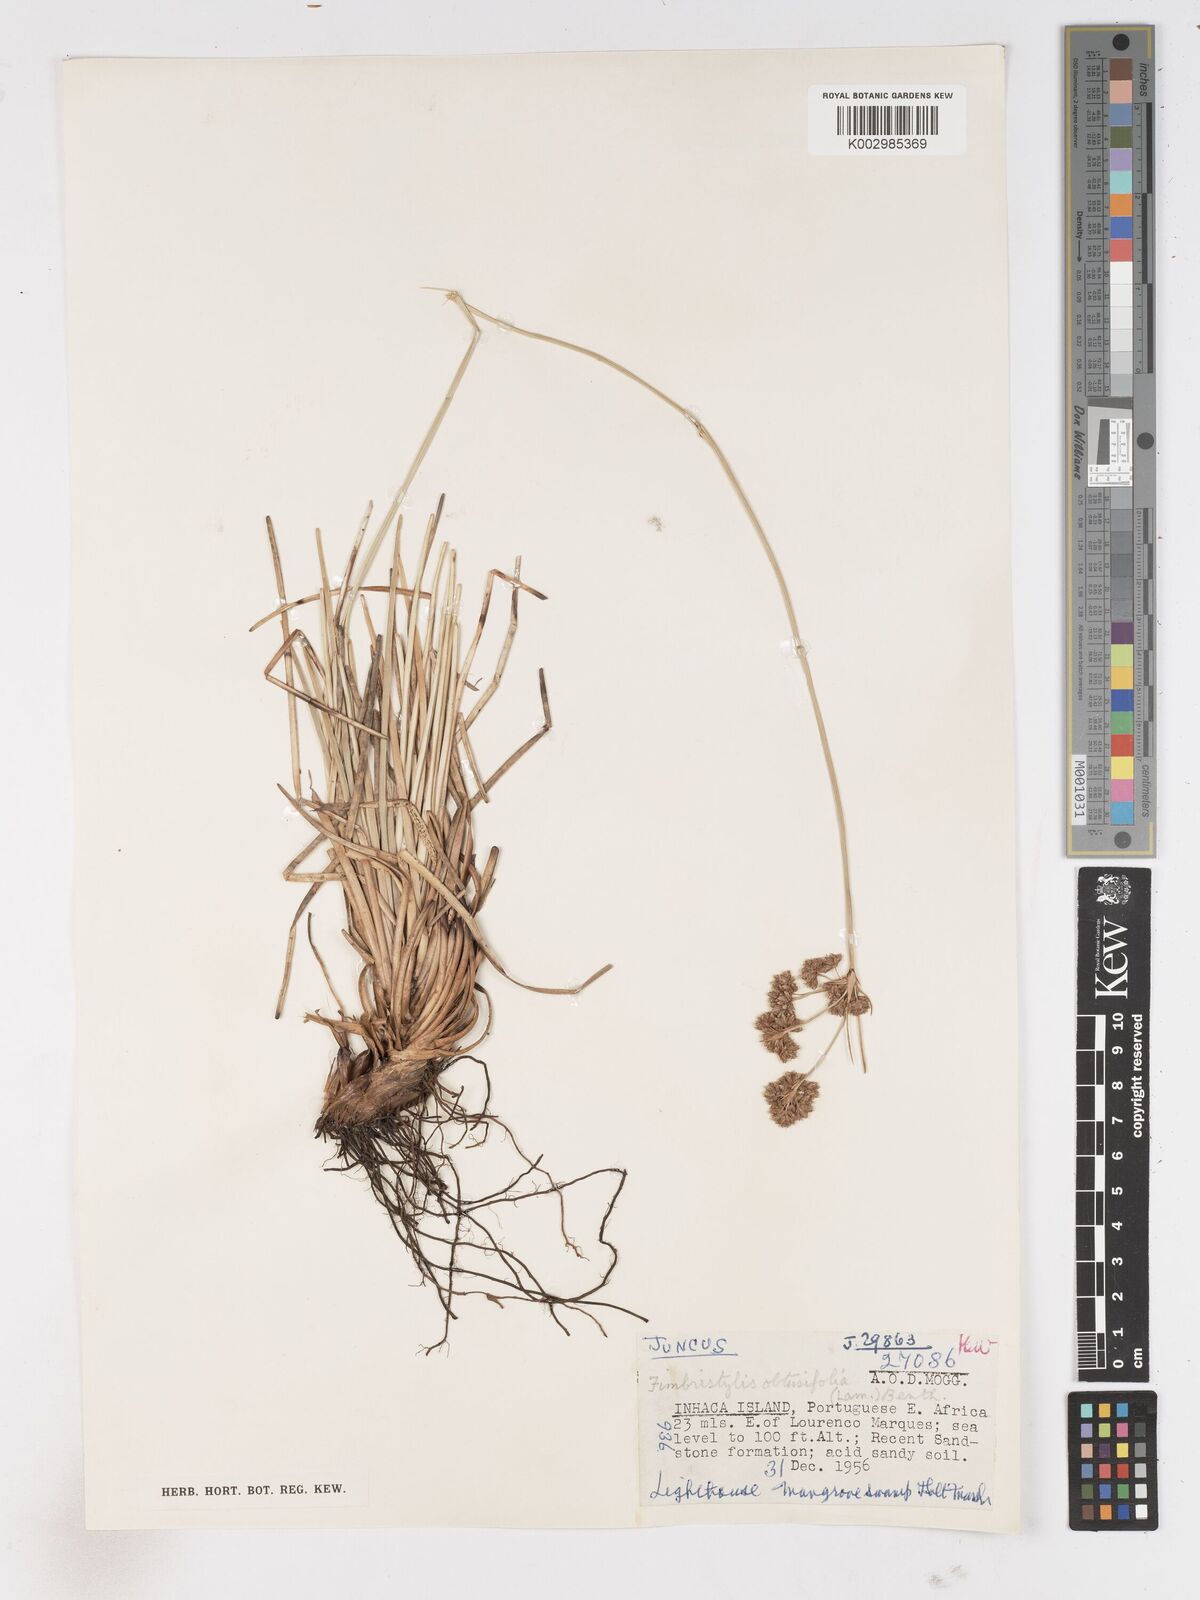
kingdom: Plantae
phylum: Tracheophyta
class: Liliopsida
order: Poales
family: Cyperaceae
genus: Fimbristylis
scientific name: Fimbristylis cymosa
